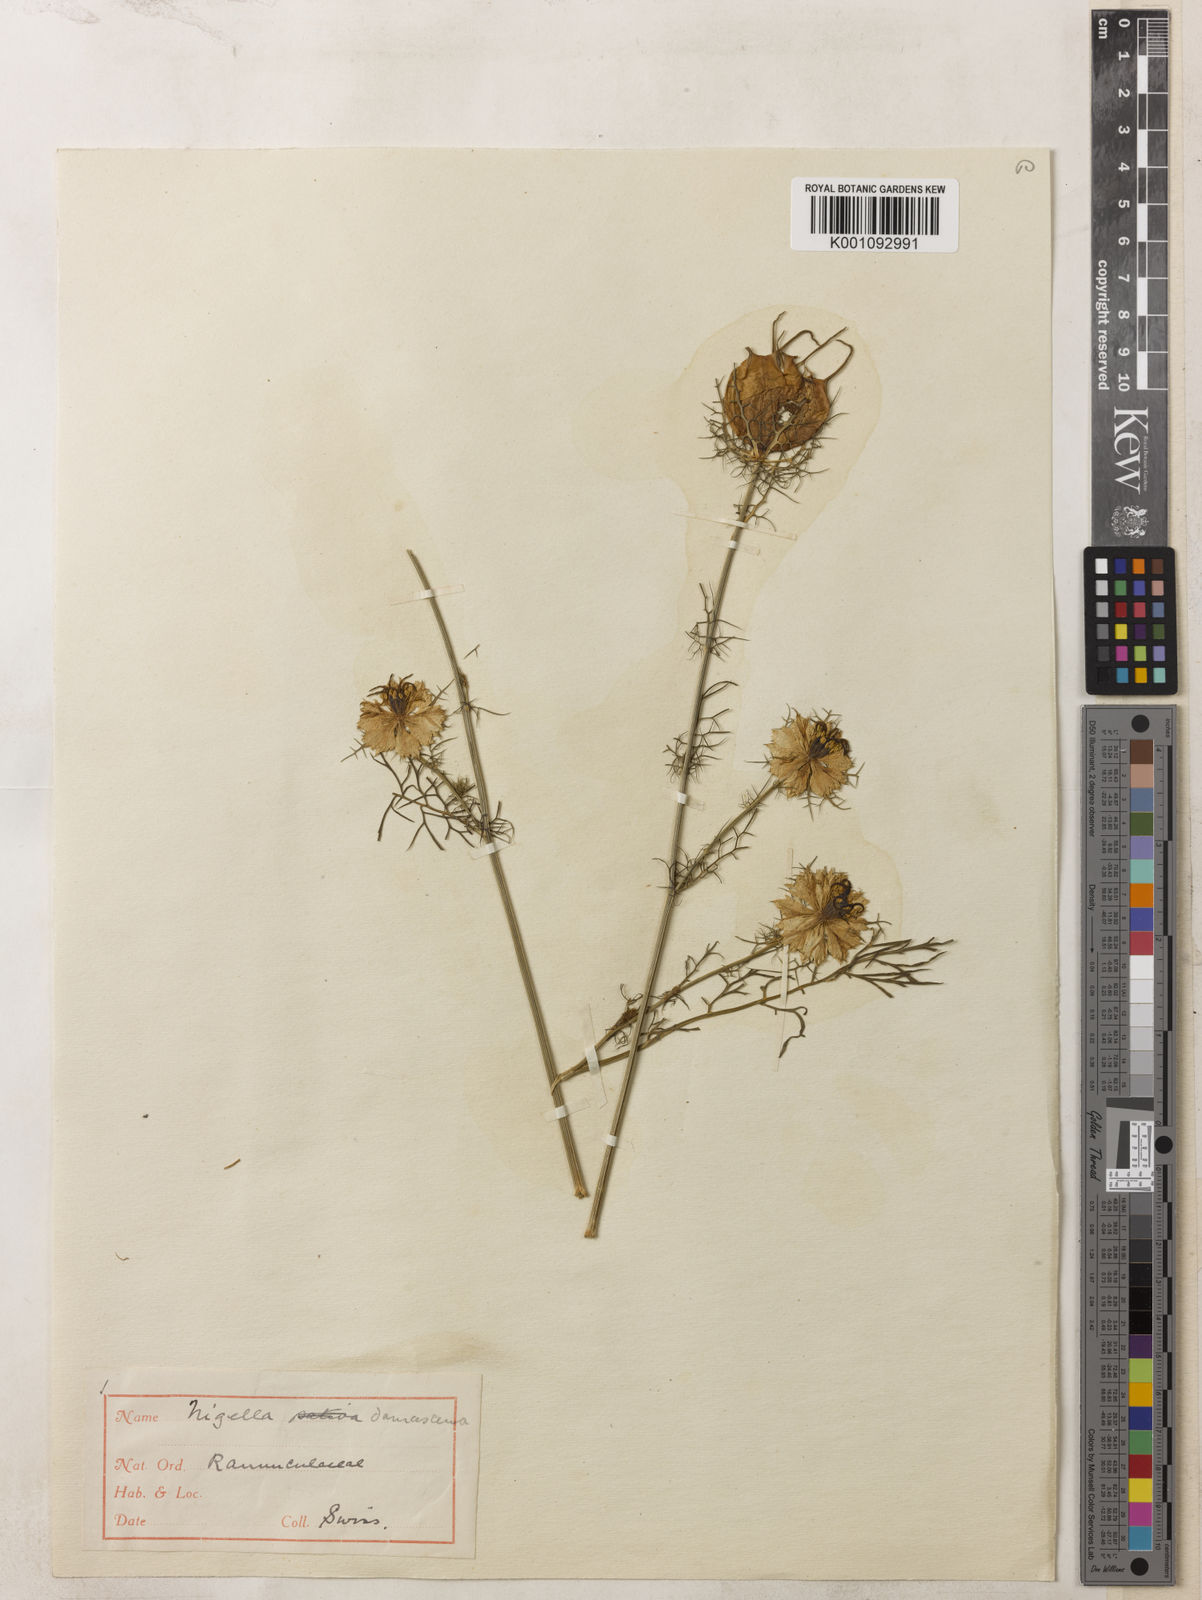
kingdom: Plantae
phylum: Tracheophyta
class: Magnoliopsida
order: Ranunculales
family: Ranunculaceae
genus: Nigella
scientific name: Nigella damascena
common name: Love-in-a-mist
